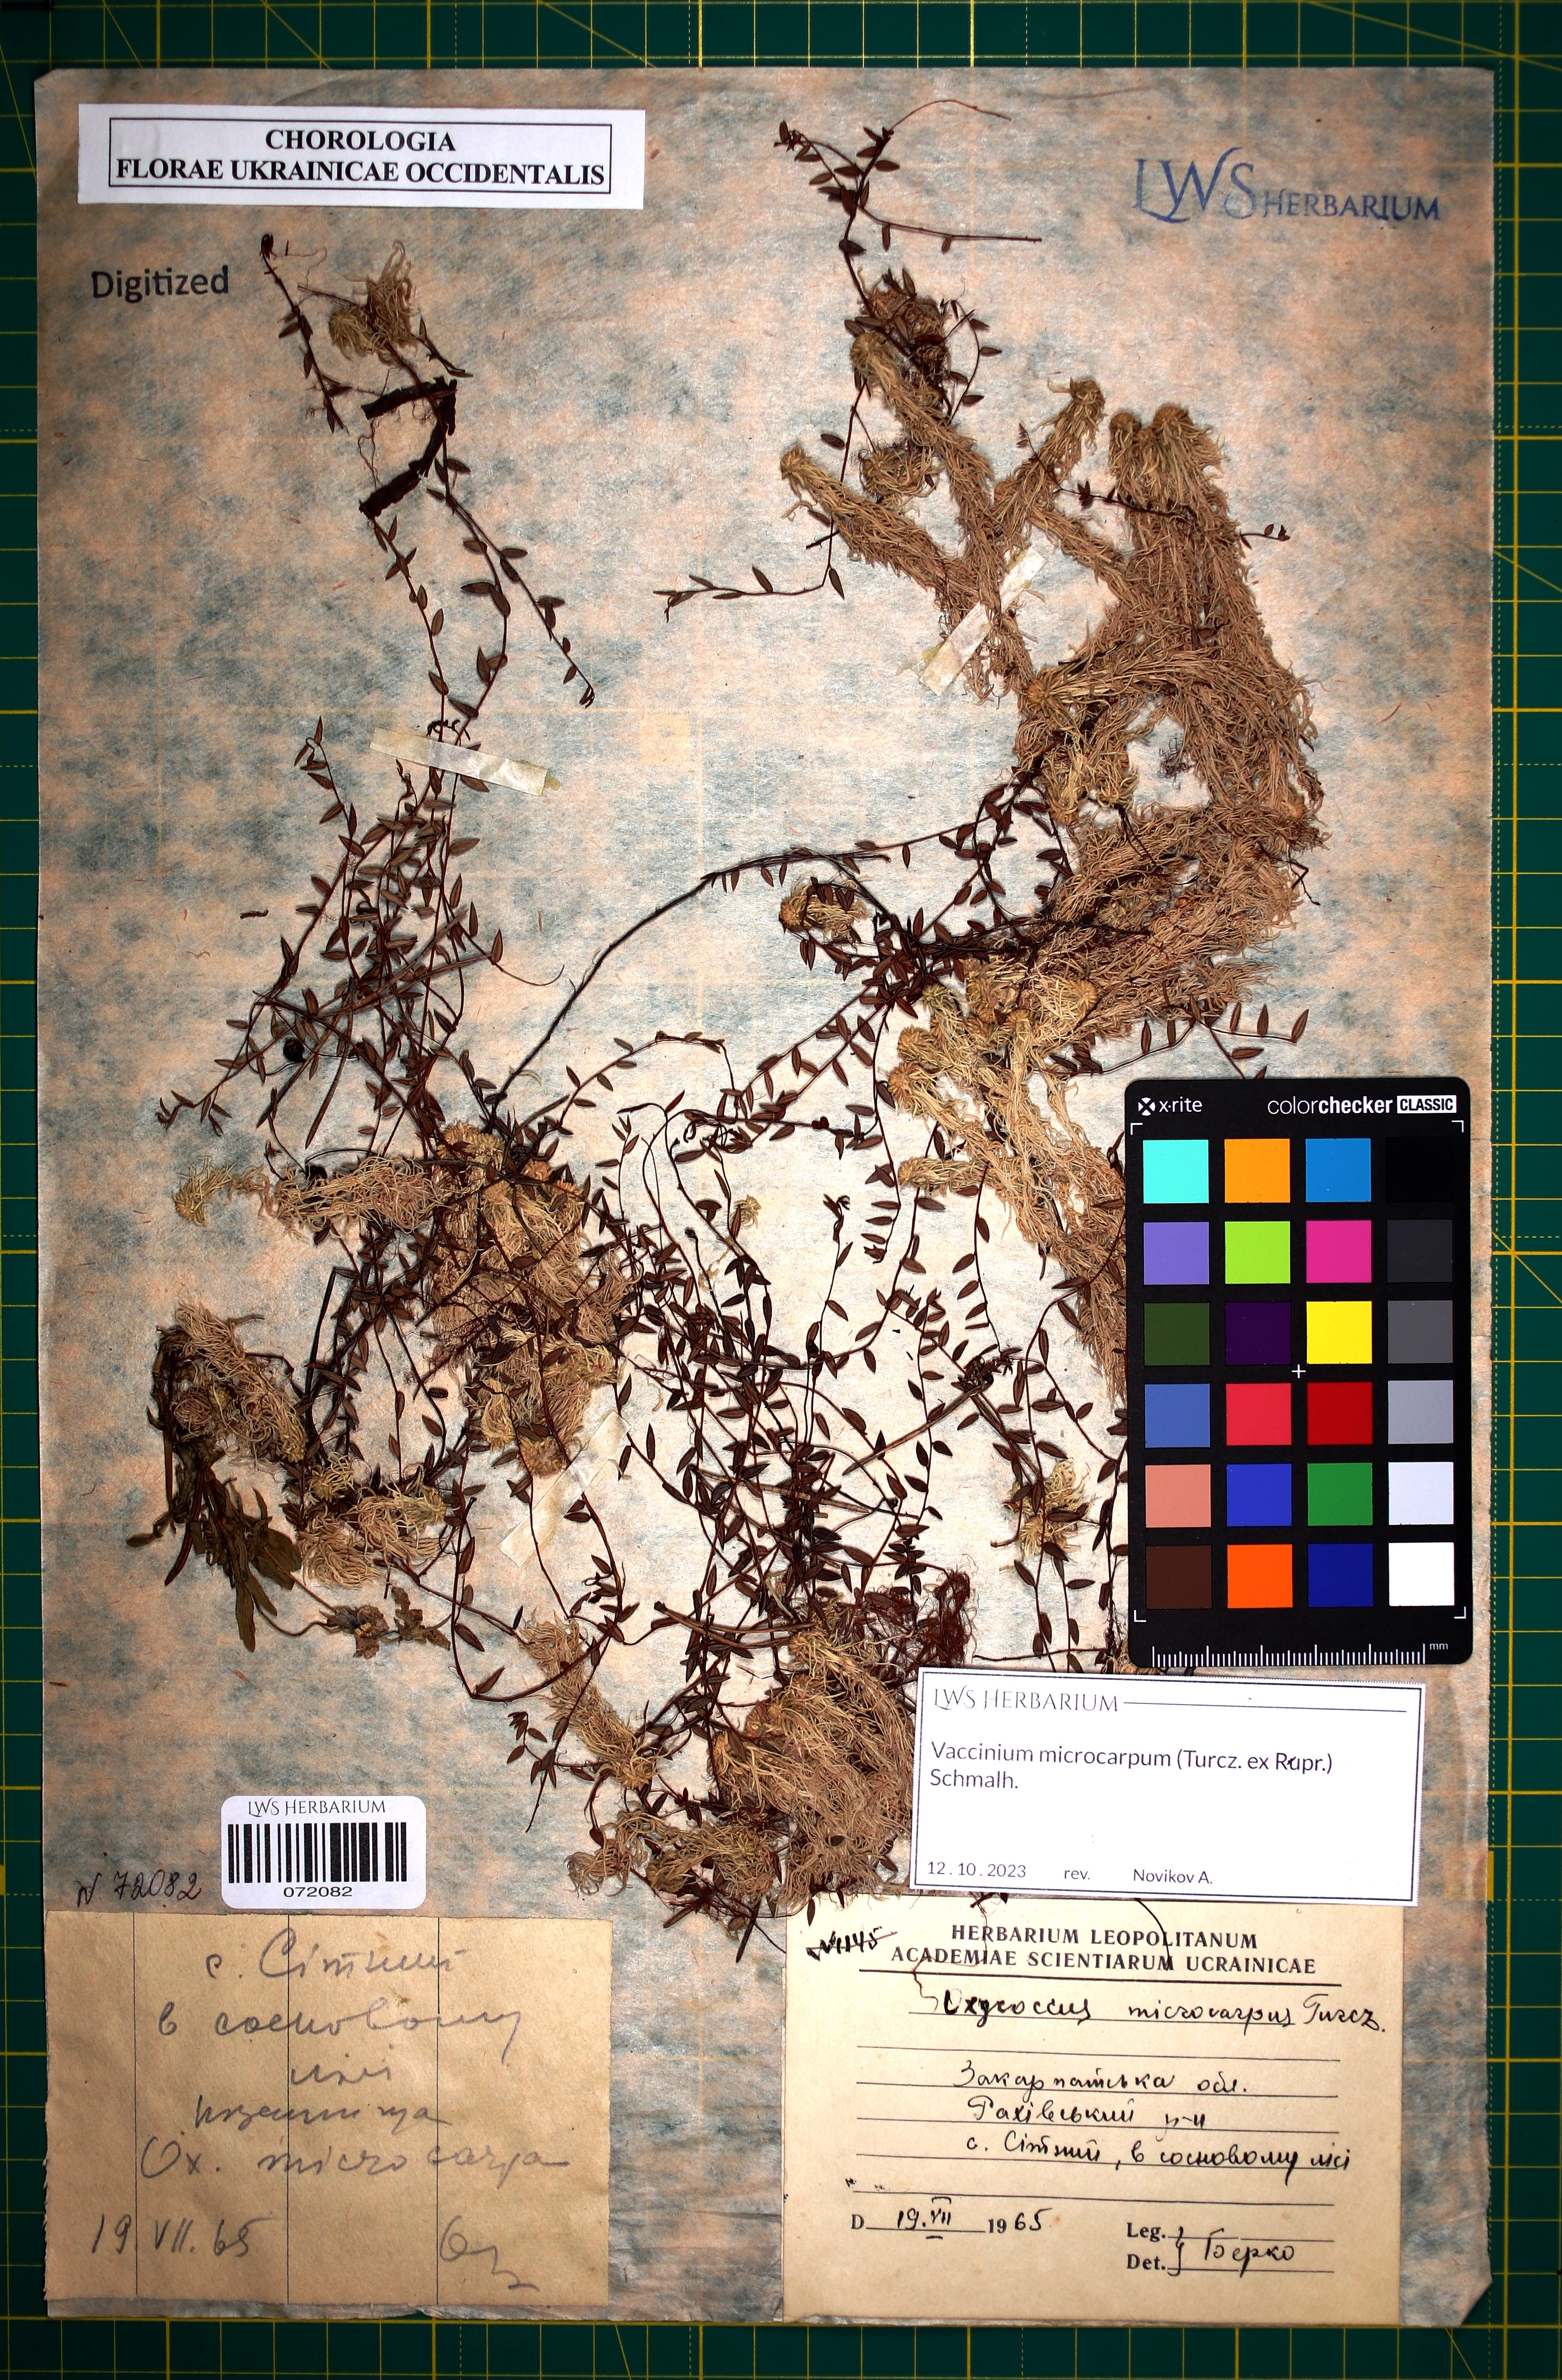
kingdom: Plantae
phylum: Tracheophyta
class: Magnoliopsida
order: Ericales
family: Ericaceae
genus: Vaccinium
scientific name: Vaccinium microcarpum
